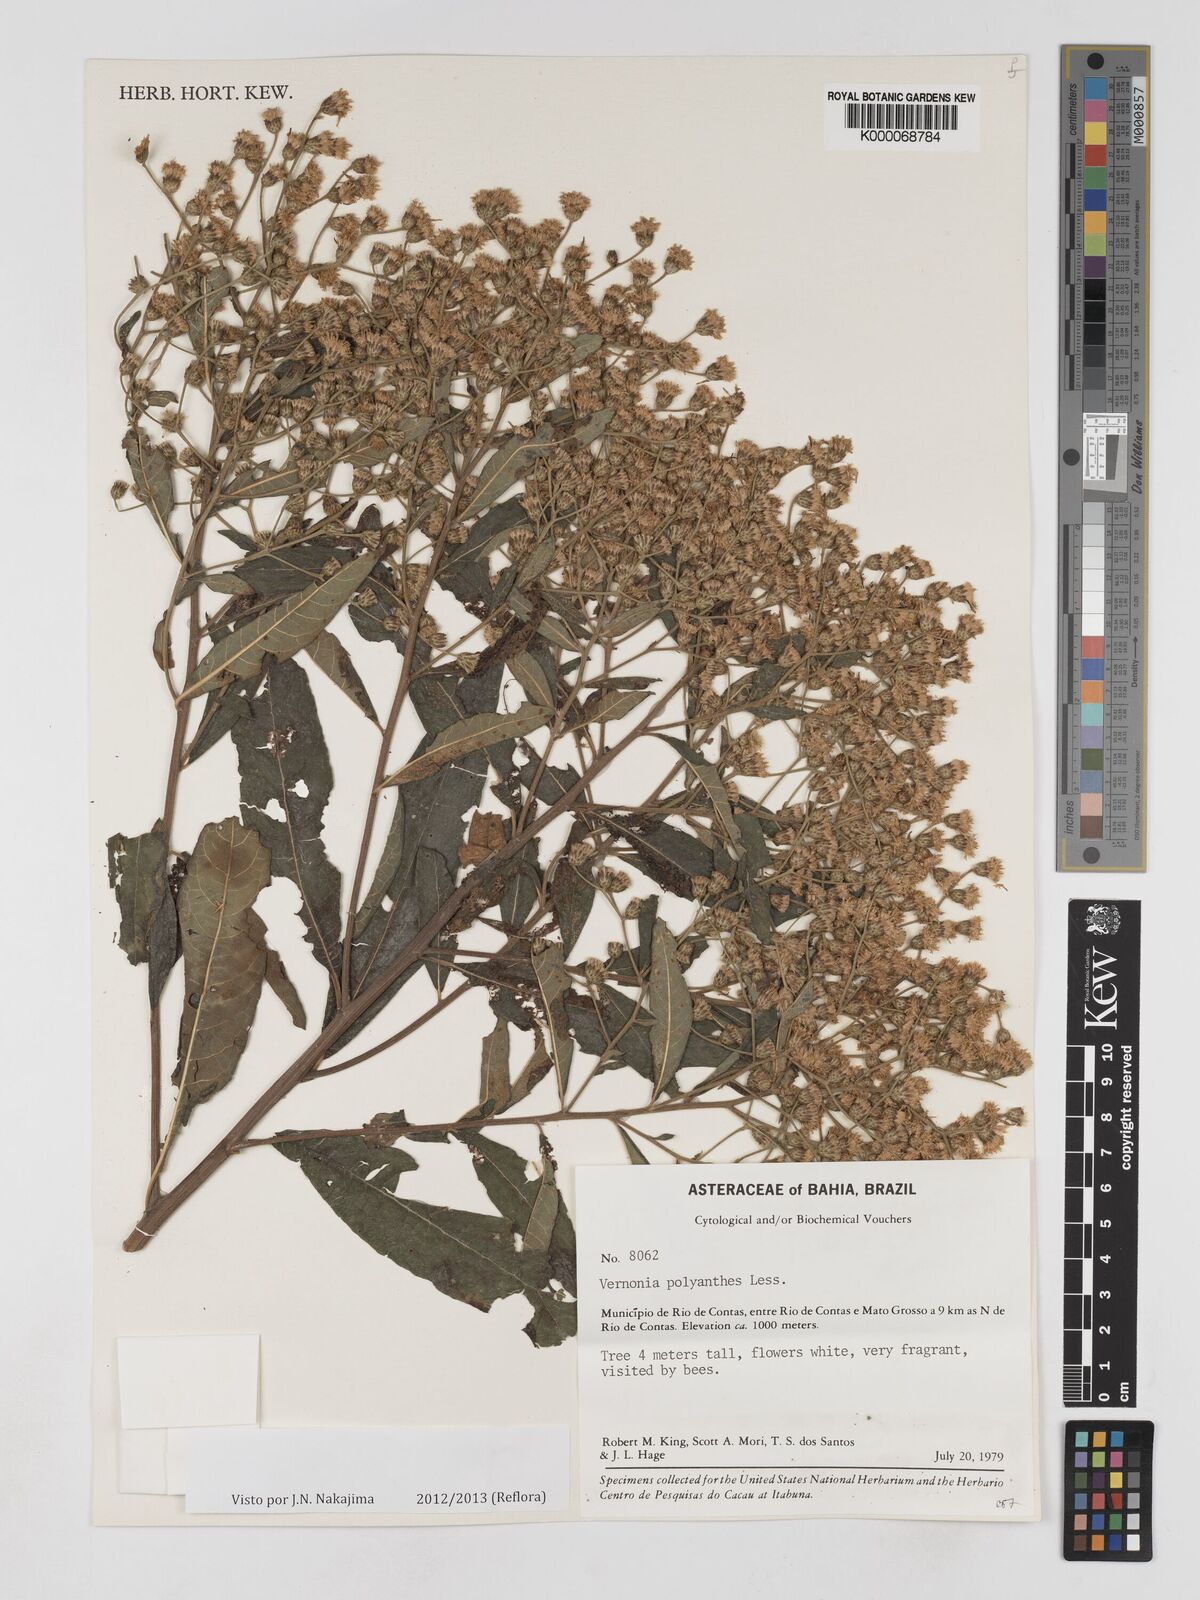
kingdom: Plantae
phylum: Tracheophyta
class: Magnoliopsida
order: Asterales
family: Asteraceae
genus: Vernonanthura
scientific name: Vernonanthura polyanthes
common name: Tree aster
